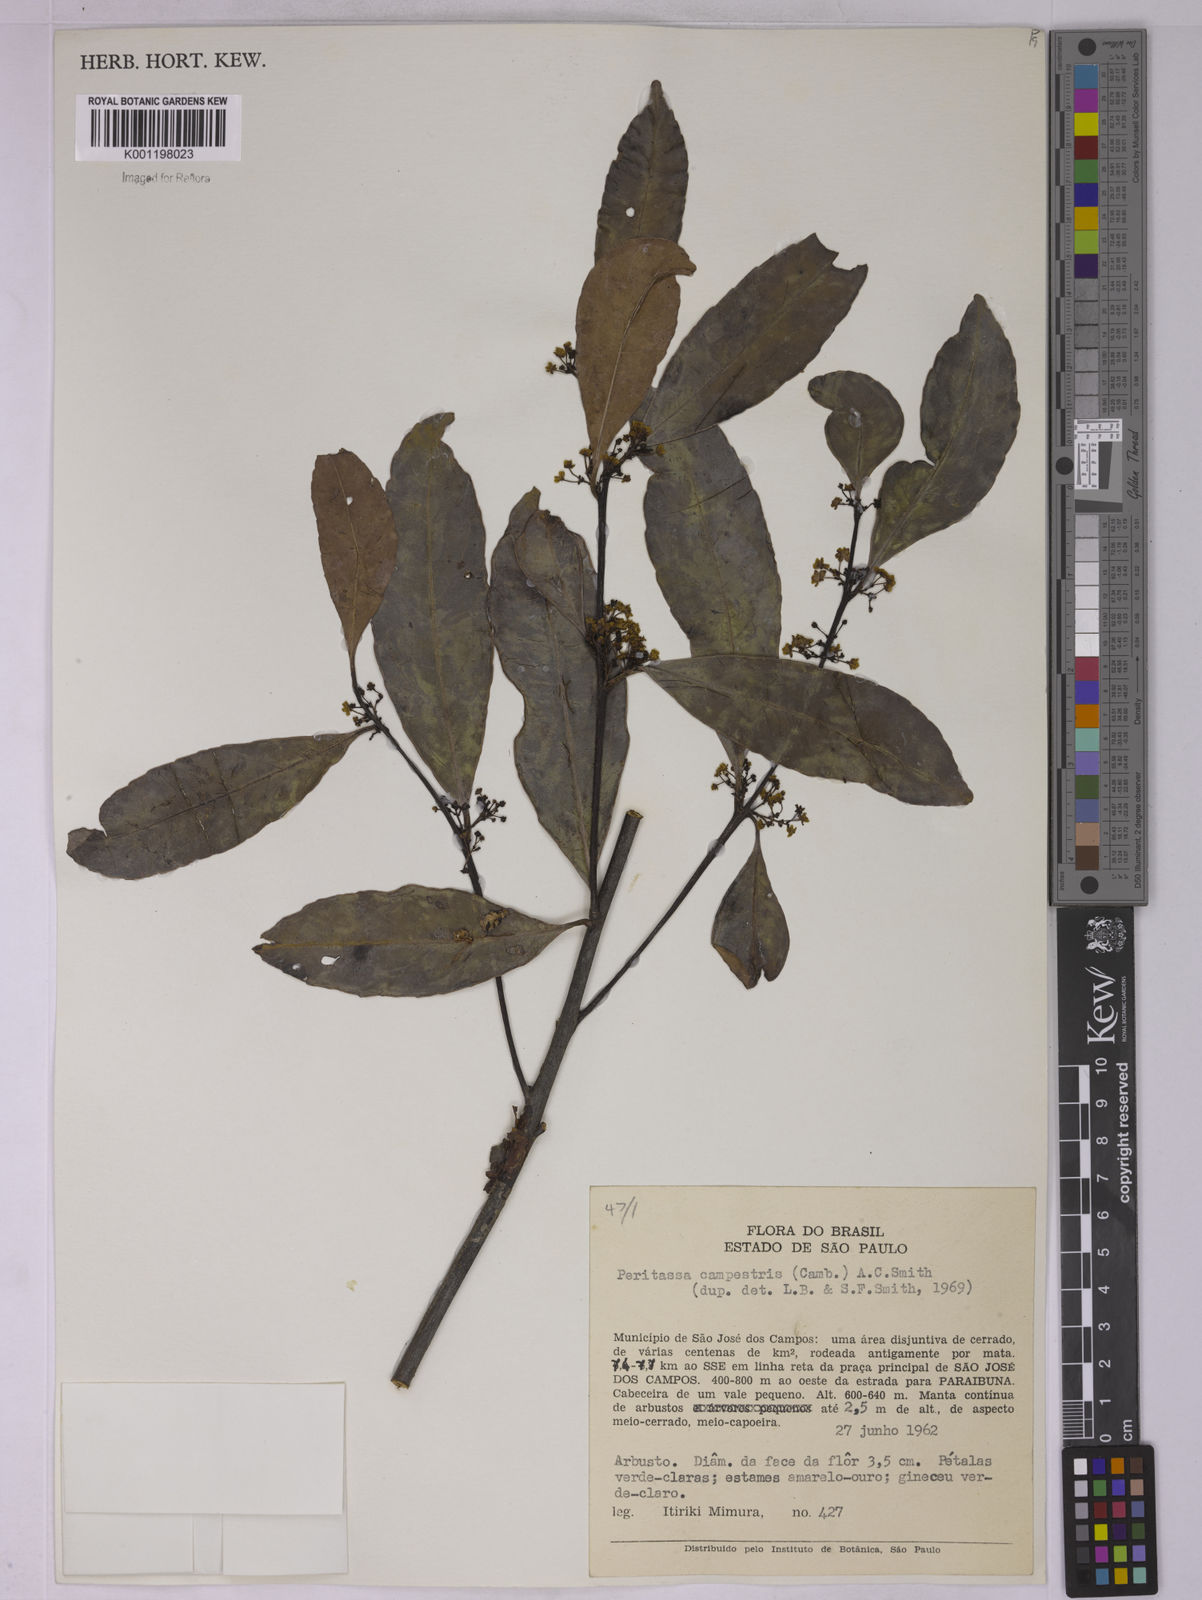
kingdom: Plantae
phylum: Tracheophyta
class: Magnoliopsida
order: Celastrales
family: Celastraceae
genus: Peritassa
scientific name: Peritassa campestris
